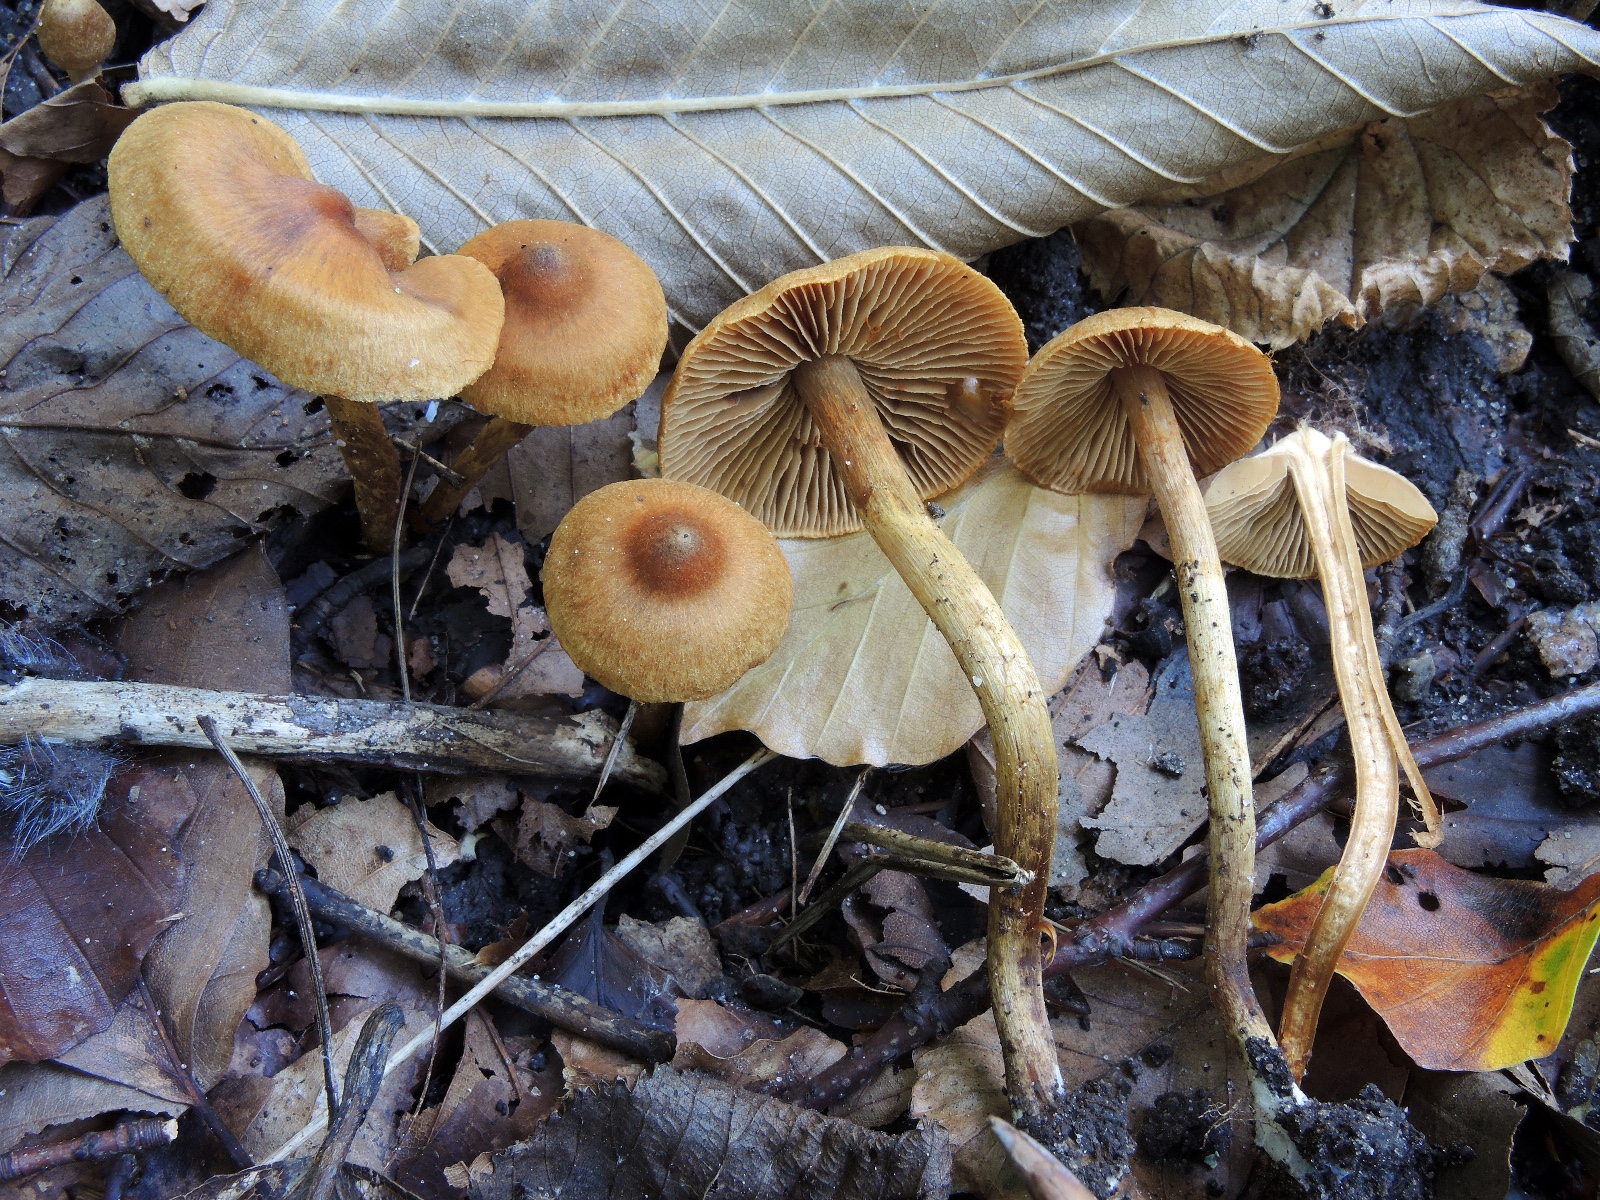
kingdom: Fungi
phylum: Basidiomycota
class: Agaricomycetes
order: Agaricales
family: Cortinariaceae
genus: Cortinarius
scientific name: Cortinarius paludosaniosus
